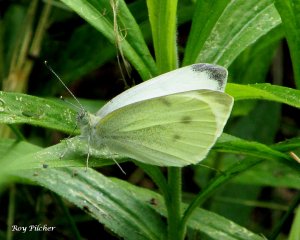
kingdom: Animalia
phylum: Arthropoda
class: Insecta
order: Lepidoptera
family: Pieridae
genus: Pieris
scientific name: Pieris rapae
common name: Cabbage White
